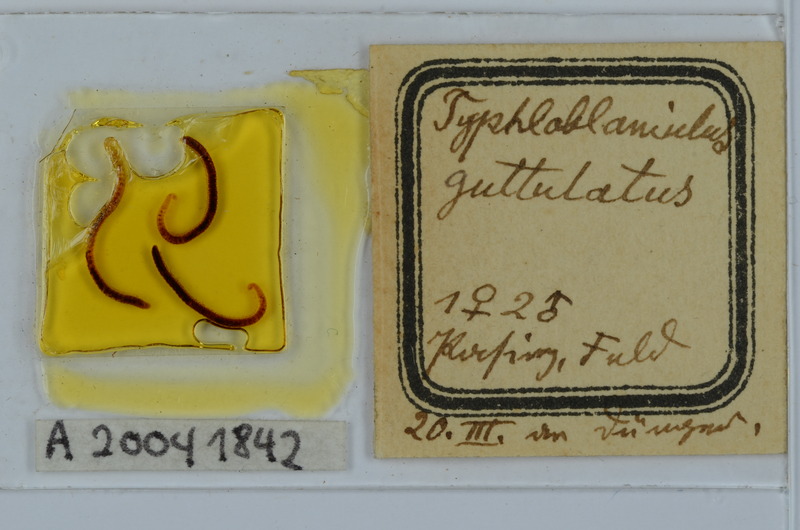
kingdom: Animalia
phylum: Arthropoda
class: Diplopoda
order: Julida
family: Blaniulidae
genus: Blaniulus
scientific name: Blaniulus guttulatus
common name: Spotted snake millipede
